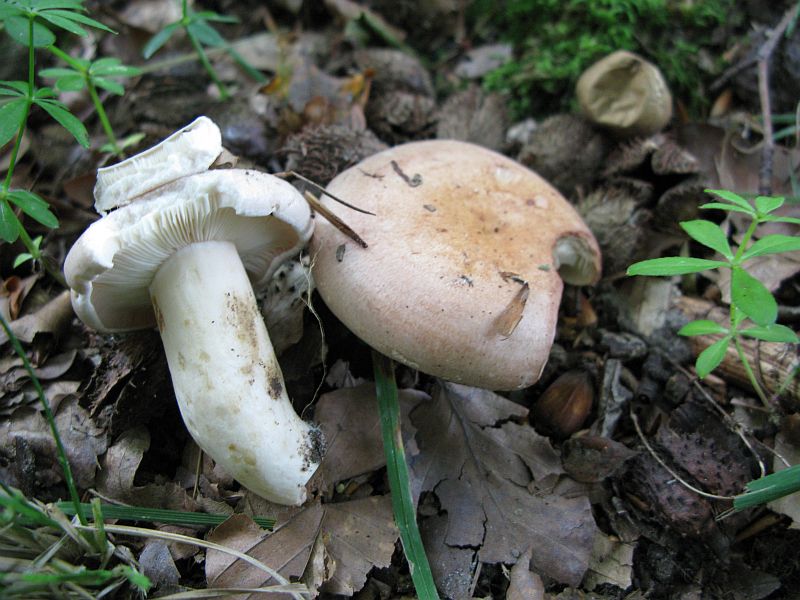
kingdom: Fungi
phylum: Basidiomycota
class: Agaricomycetes
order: Russulales
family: Russulaceae
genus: Lactarius
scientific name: Lactarius pallidus
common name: bleg mælkehat
